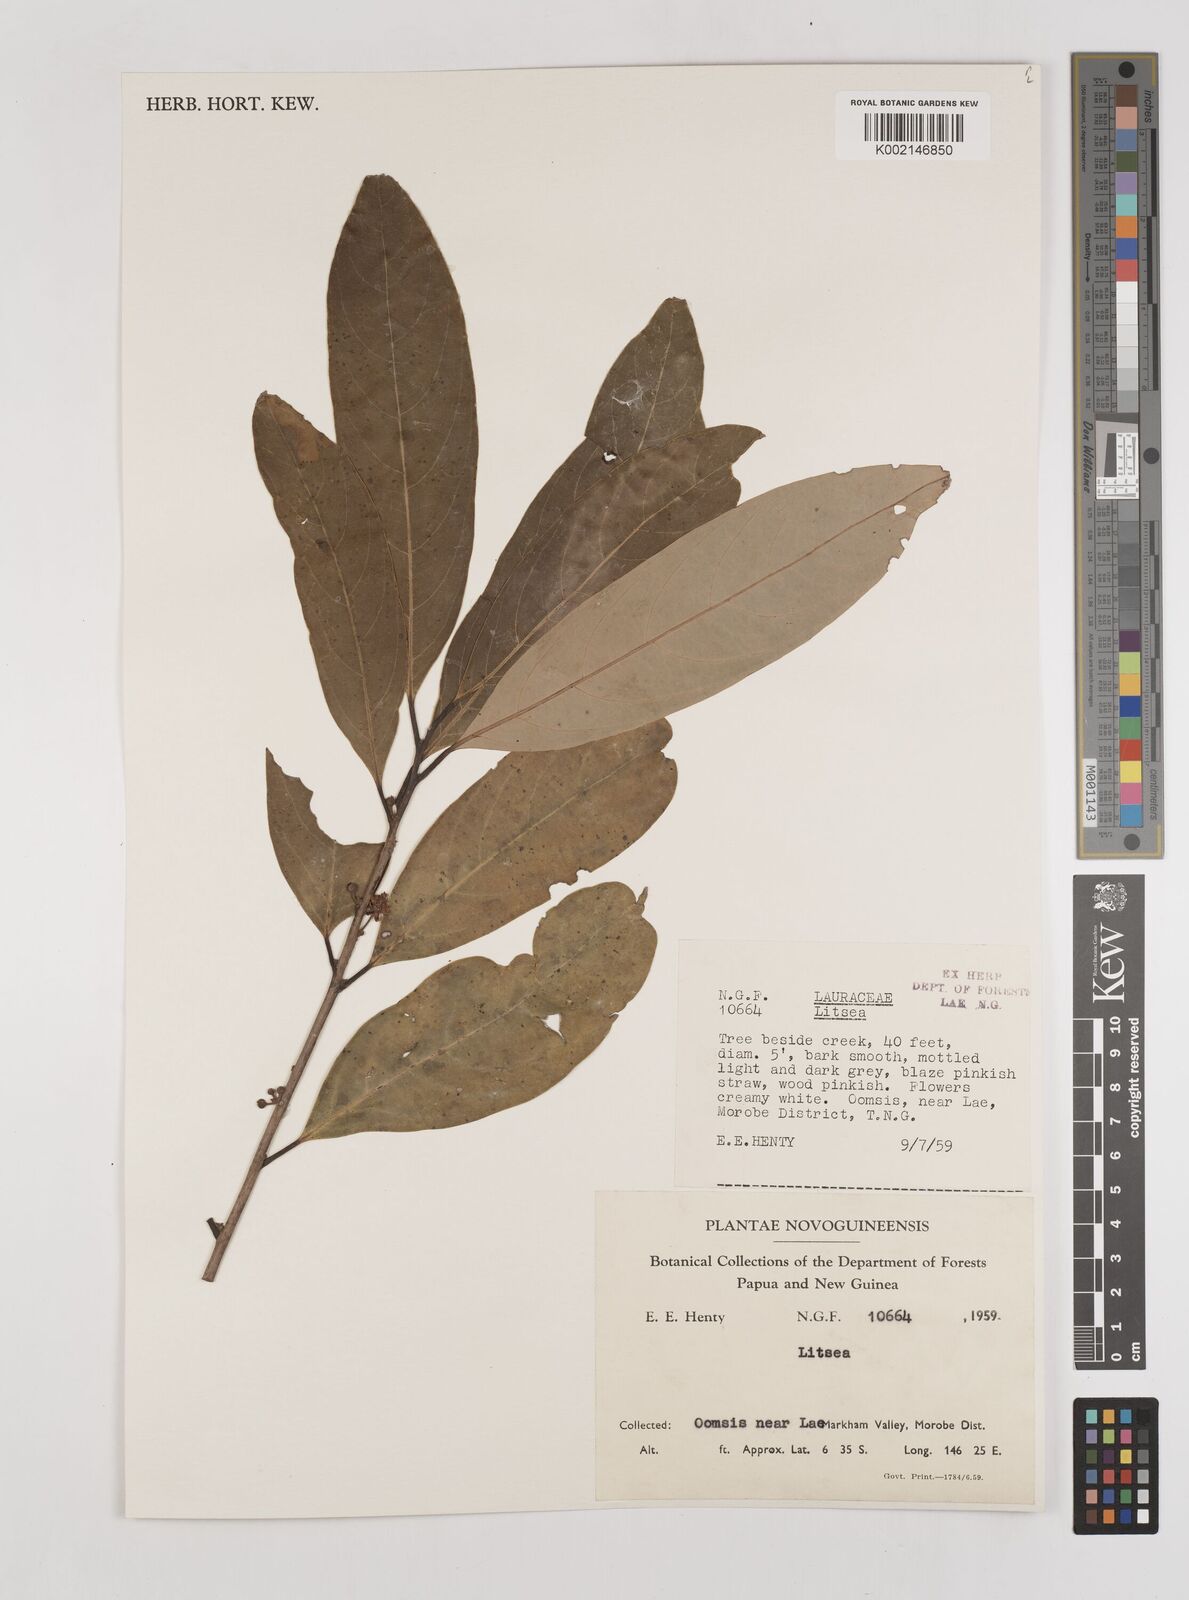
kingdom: Plantae
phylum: Tracheophyta
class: Magnoliopsida
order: Laurales
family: Lauraceae
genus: Litsea
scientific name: Litsea
